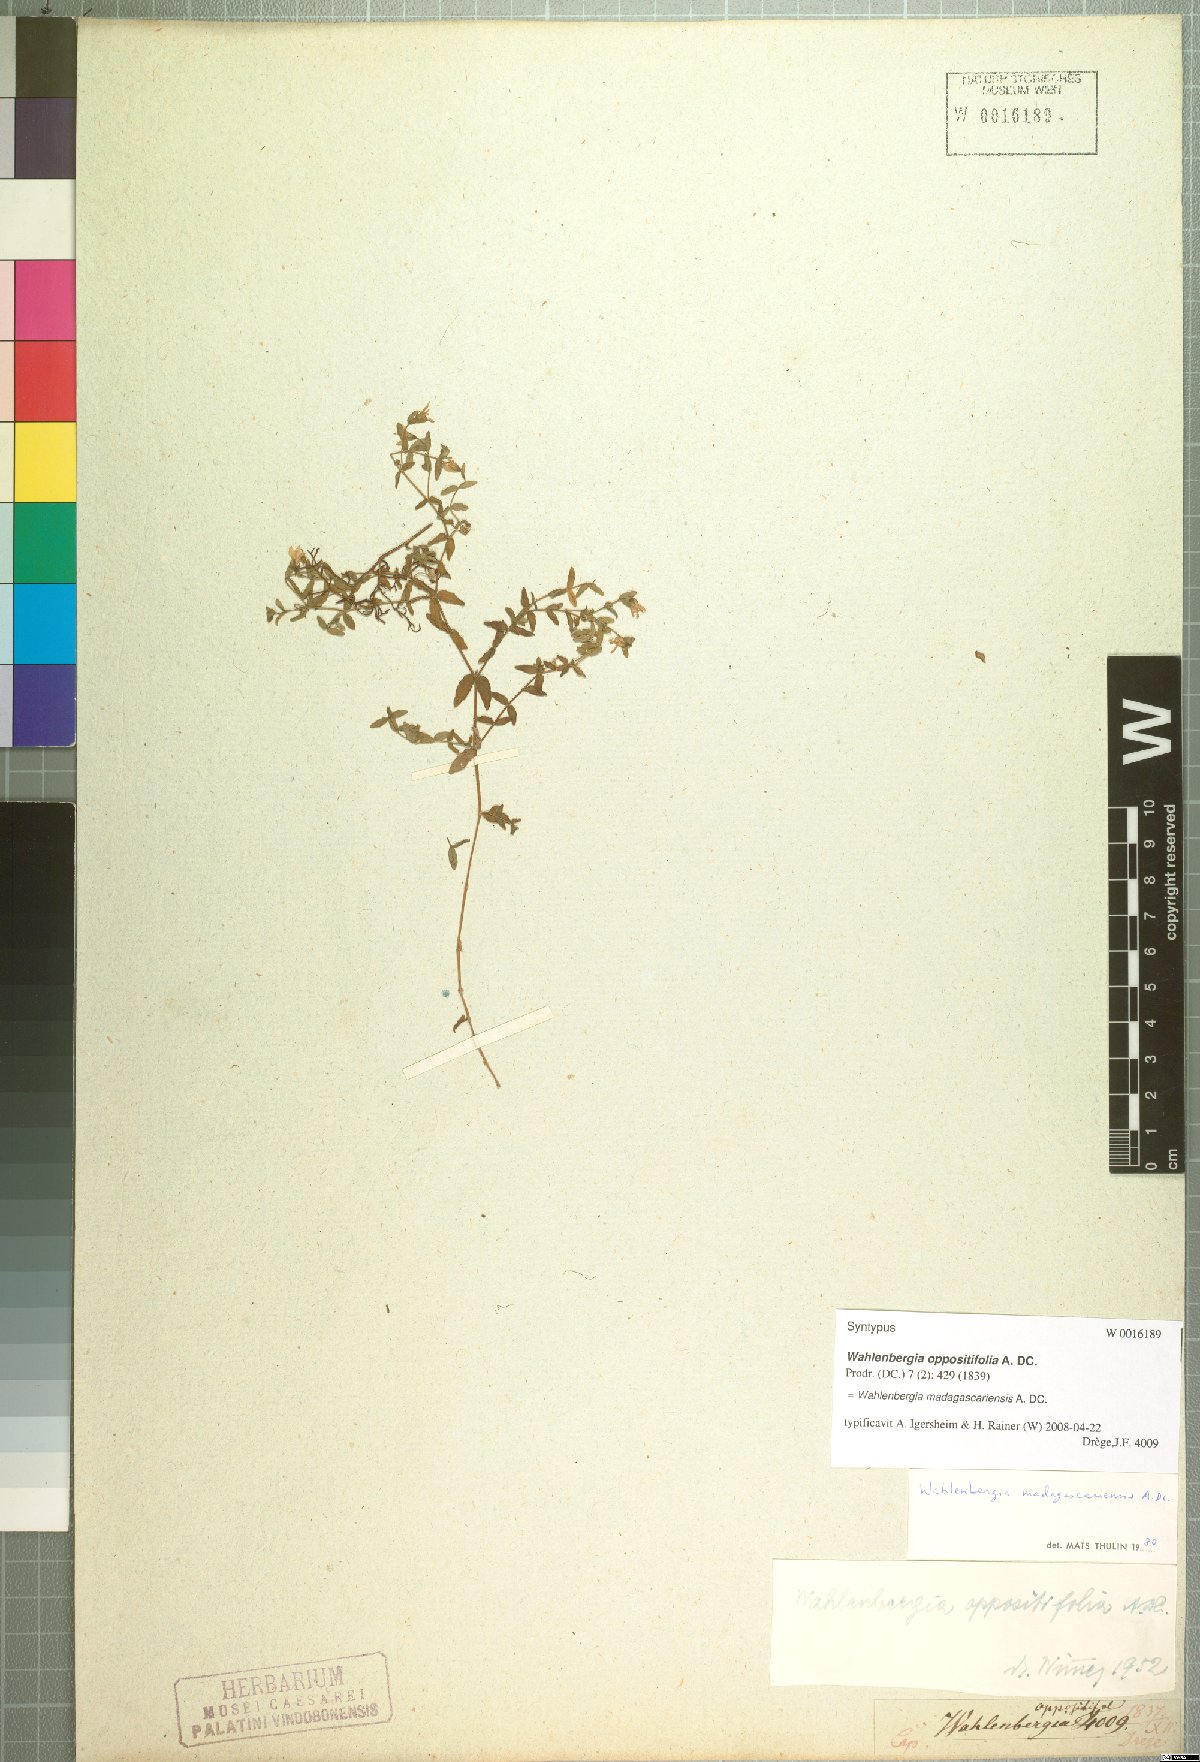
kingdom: Plantae
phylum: Tracheophyta
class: Magnoliopsida
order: Asterales
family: Campanulaceae
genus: Wahlenbergia
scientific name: Wahlenbergia madagascariensis
